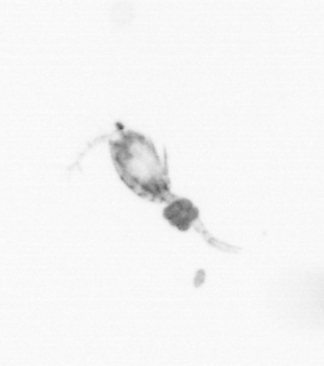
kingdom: Animalia
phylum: Chaetognatha
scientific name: Chaetognatha
